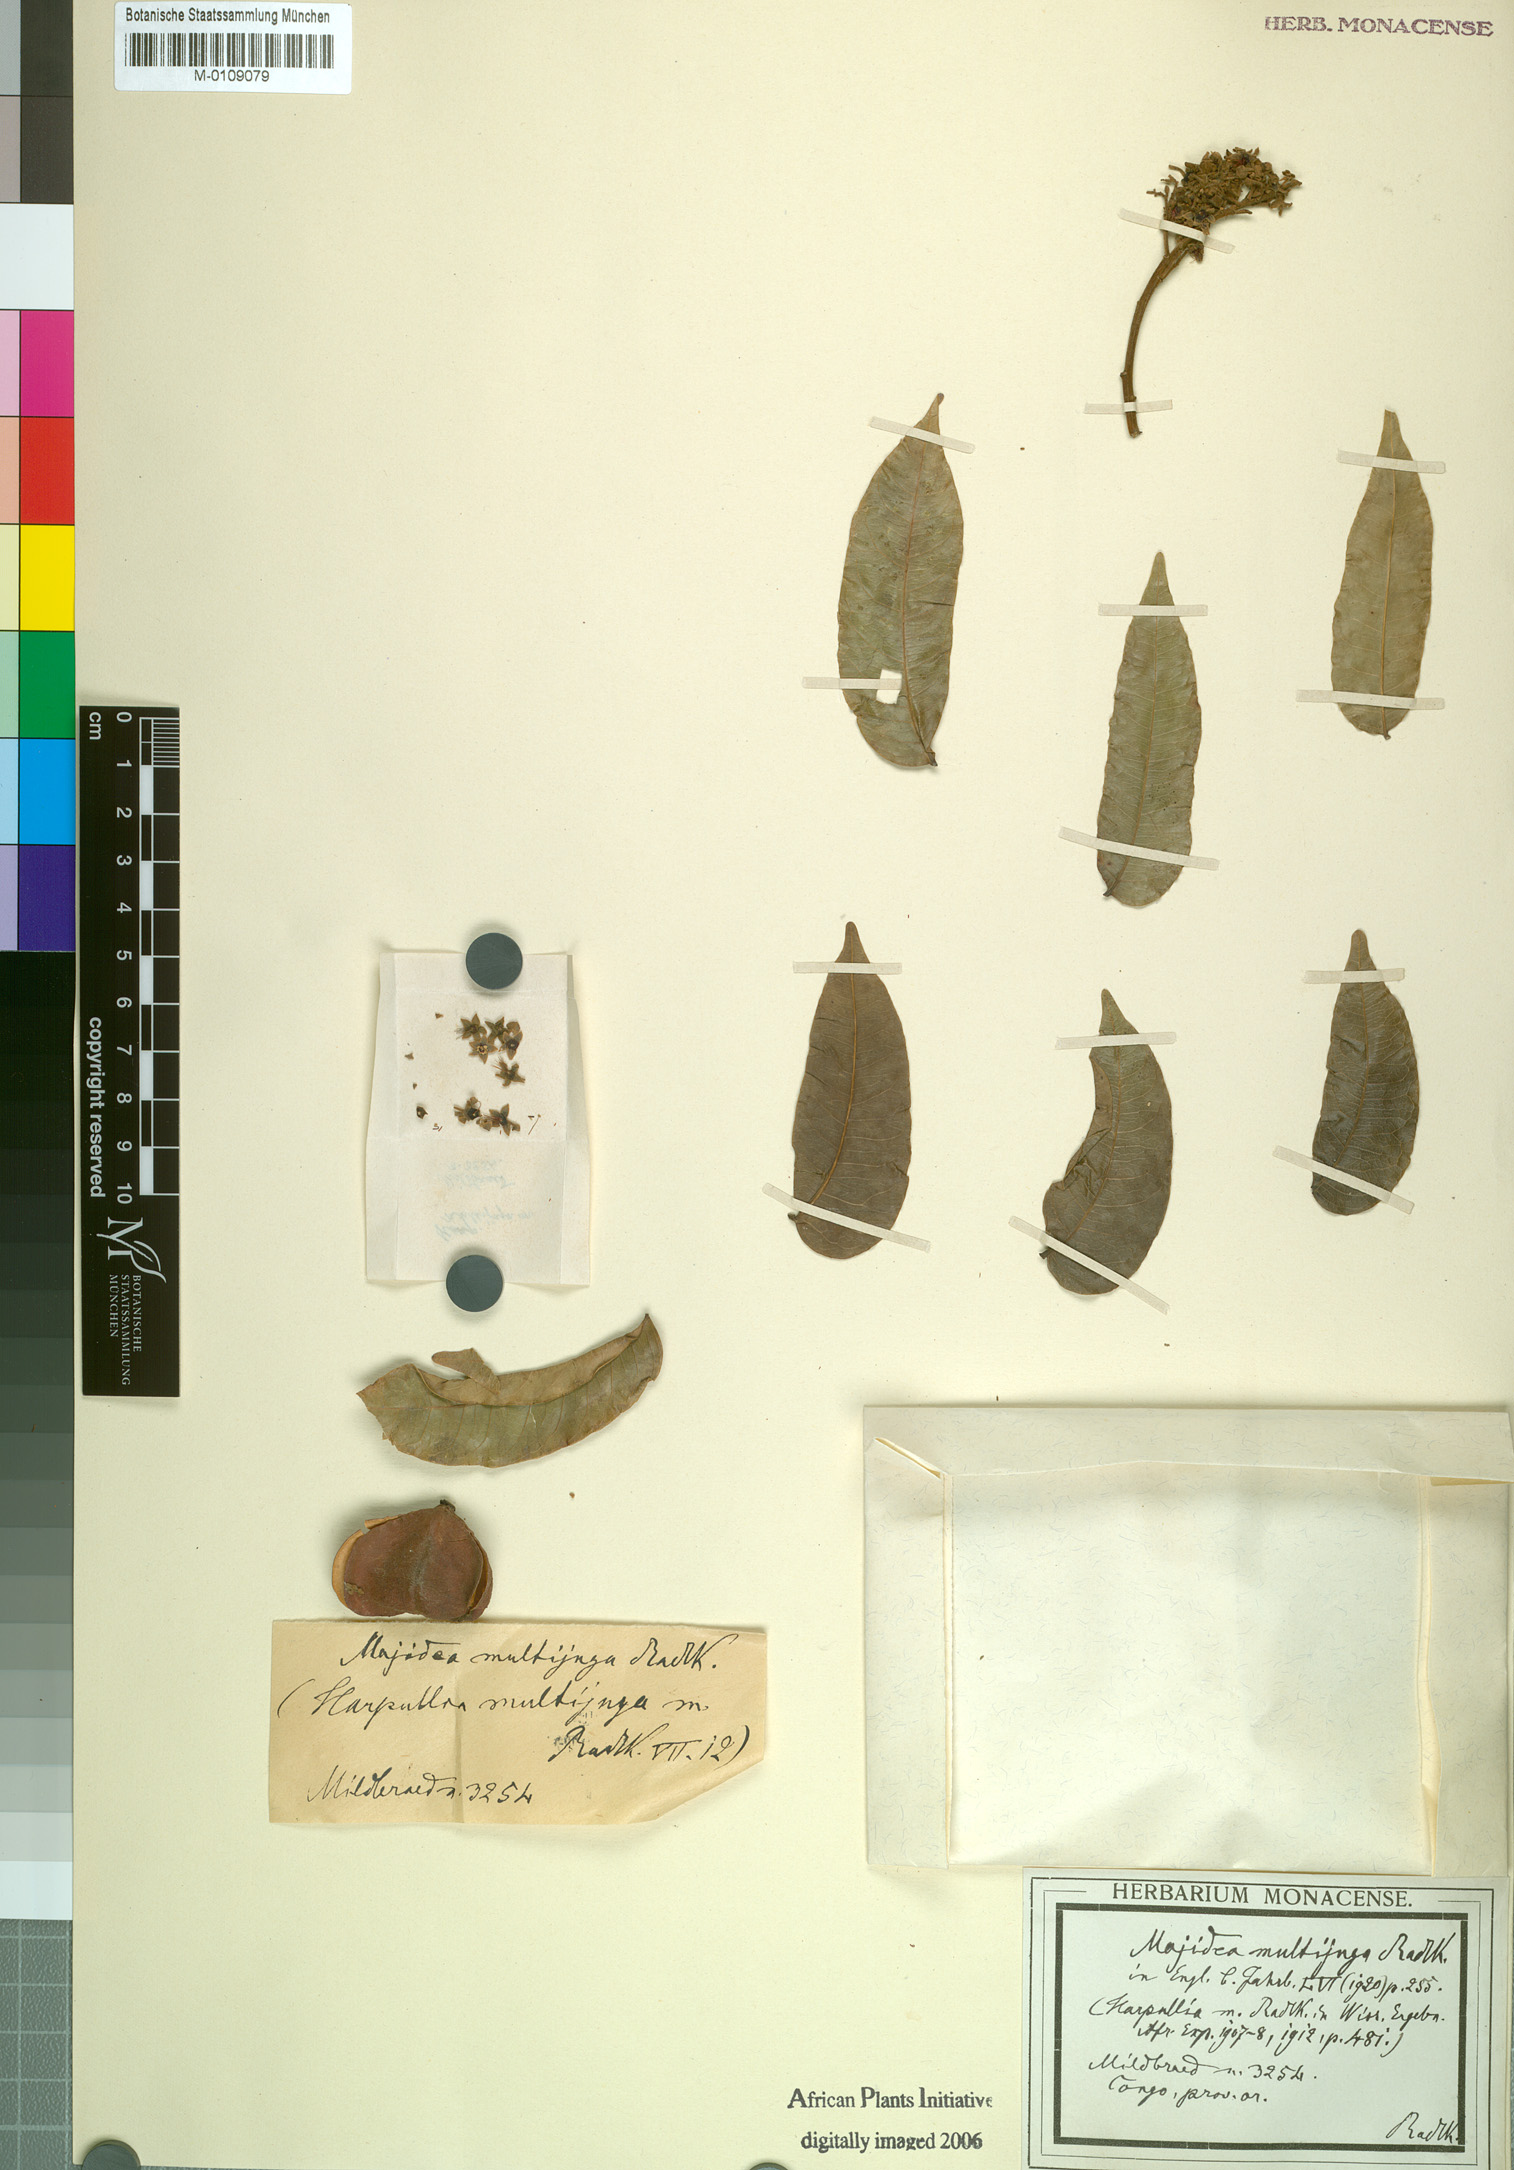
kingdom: Plantae
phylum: Tracheophyta
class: Magnoliopsida
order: Sapindales
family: Sapindaceae
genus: Majidea
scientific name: Majidea fosteri
